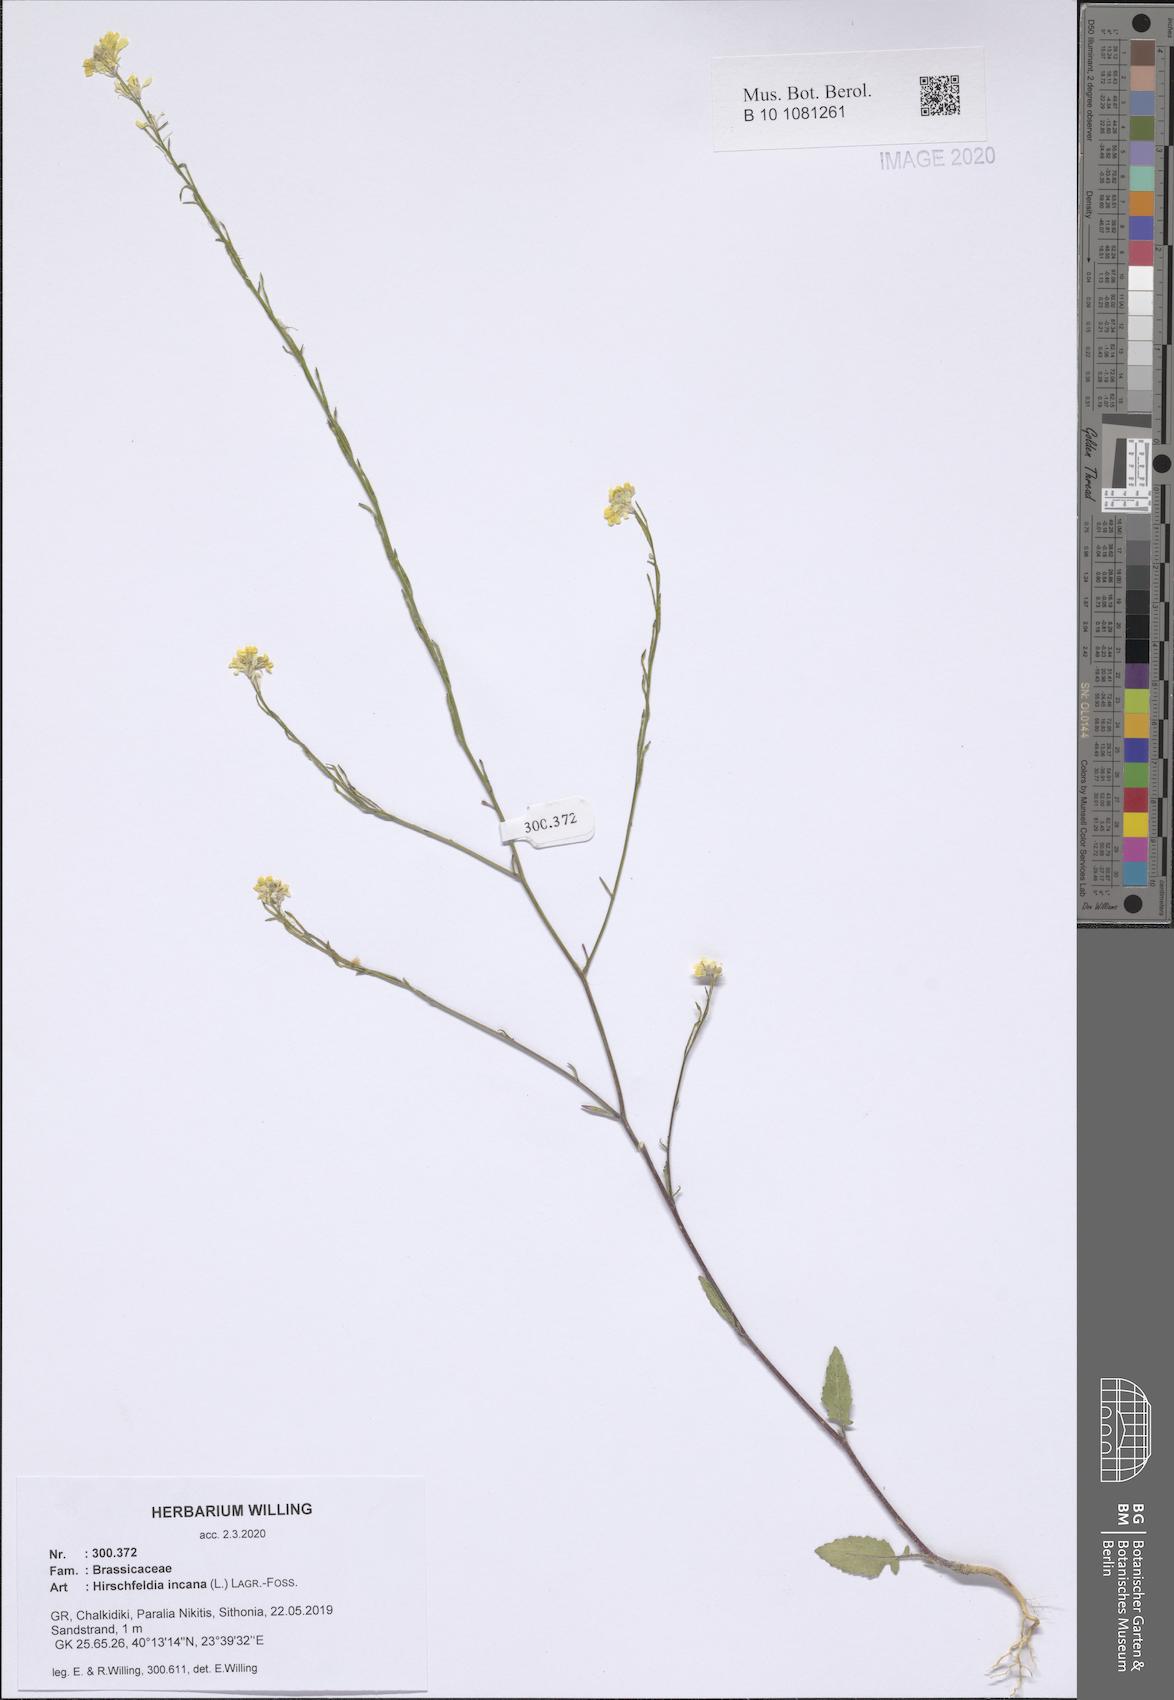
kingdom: Plantae
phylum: Tracheophyta
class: Magnoliopsida
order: Brassicales
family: Brassicaceae
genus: Hirschfeldia
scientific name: Hirschfeldia incana
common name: Hoary mustard
